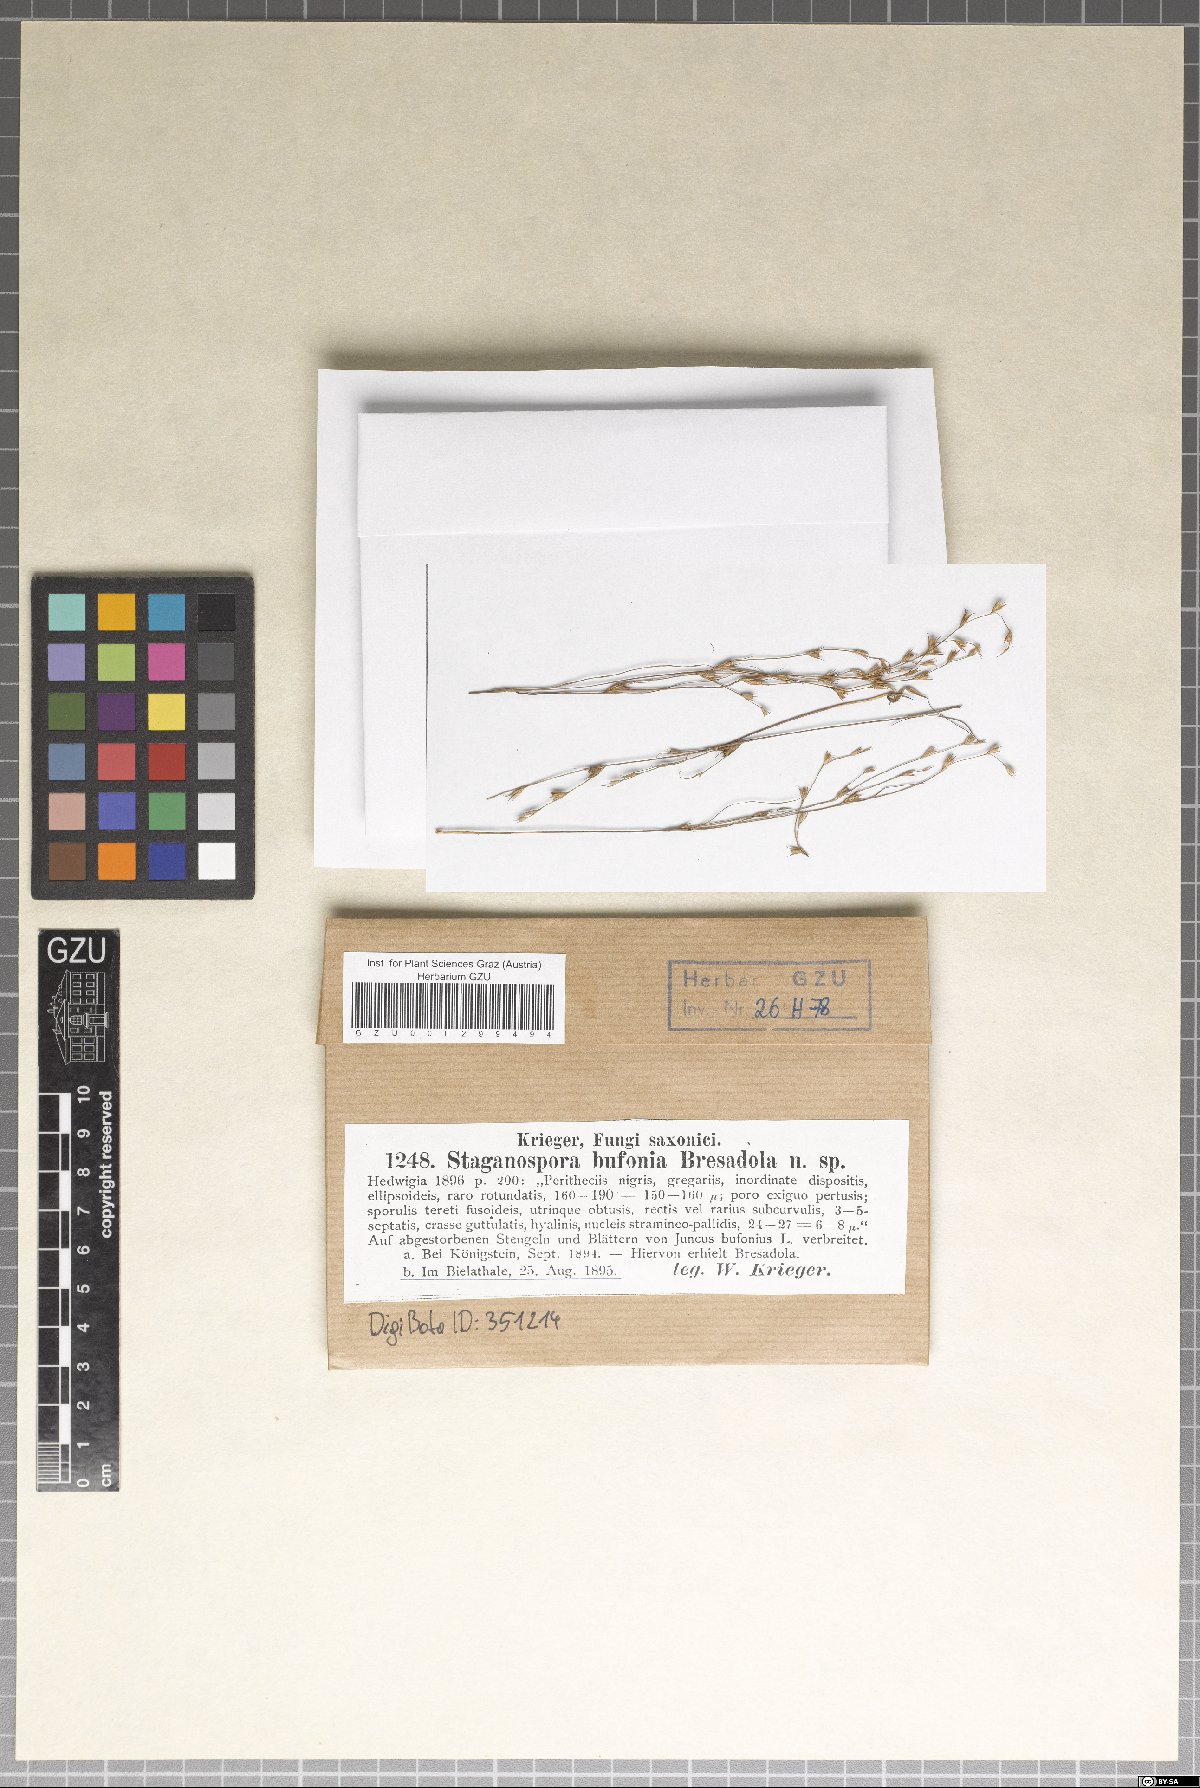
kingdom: Fungi
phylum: Ascomycota
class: Dothideomycetes
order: Pleosporales
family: Phaeosphaeriaceae
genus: Stagonospora
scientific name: Stagonospora bufonia
